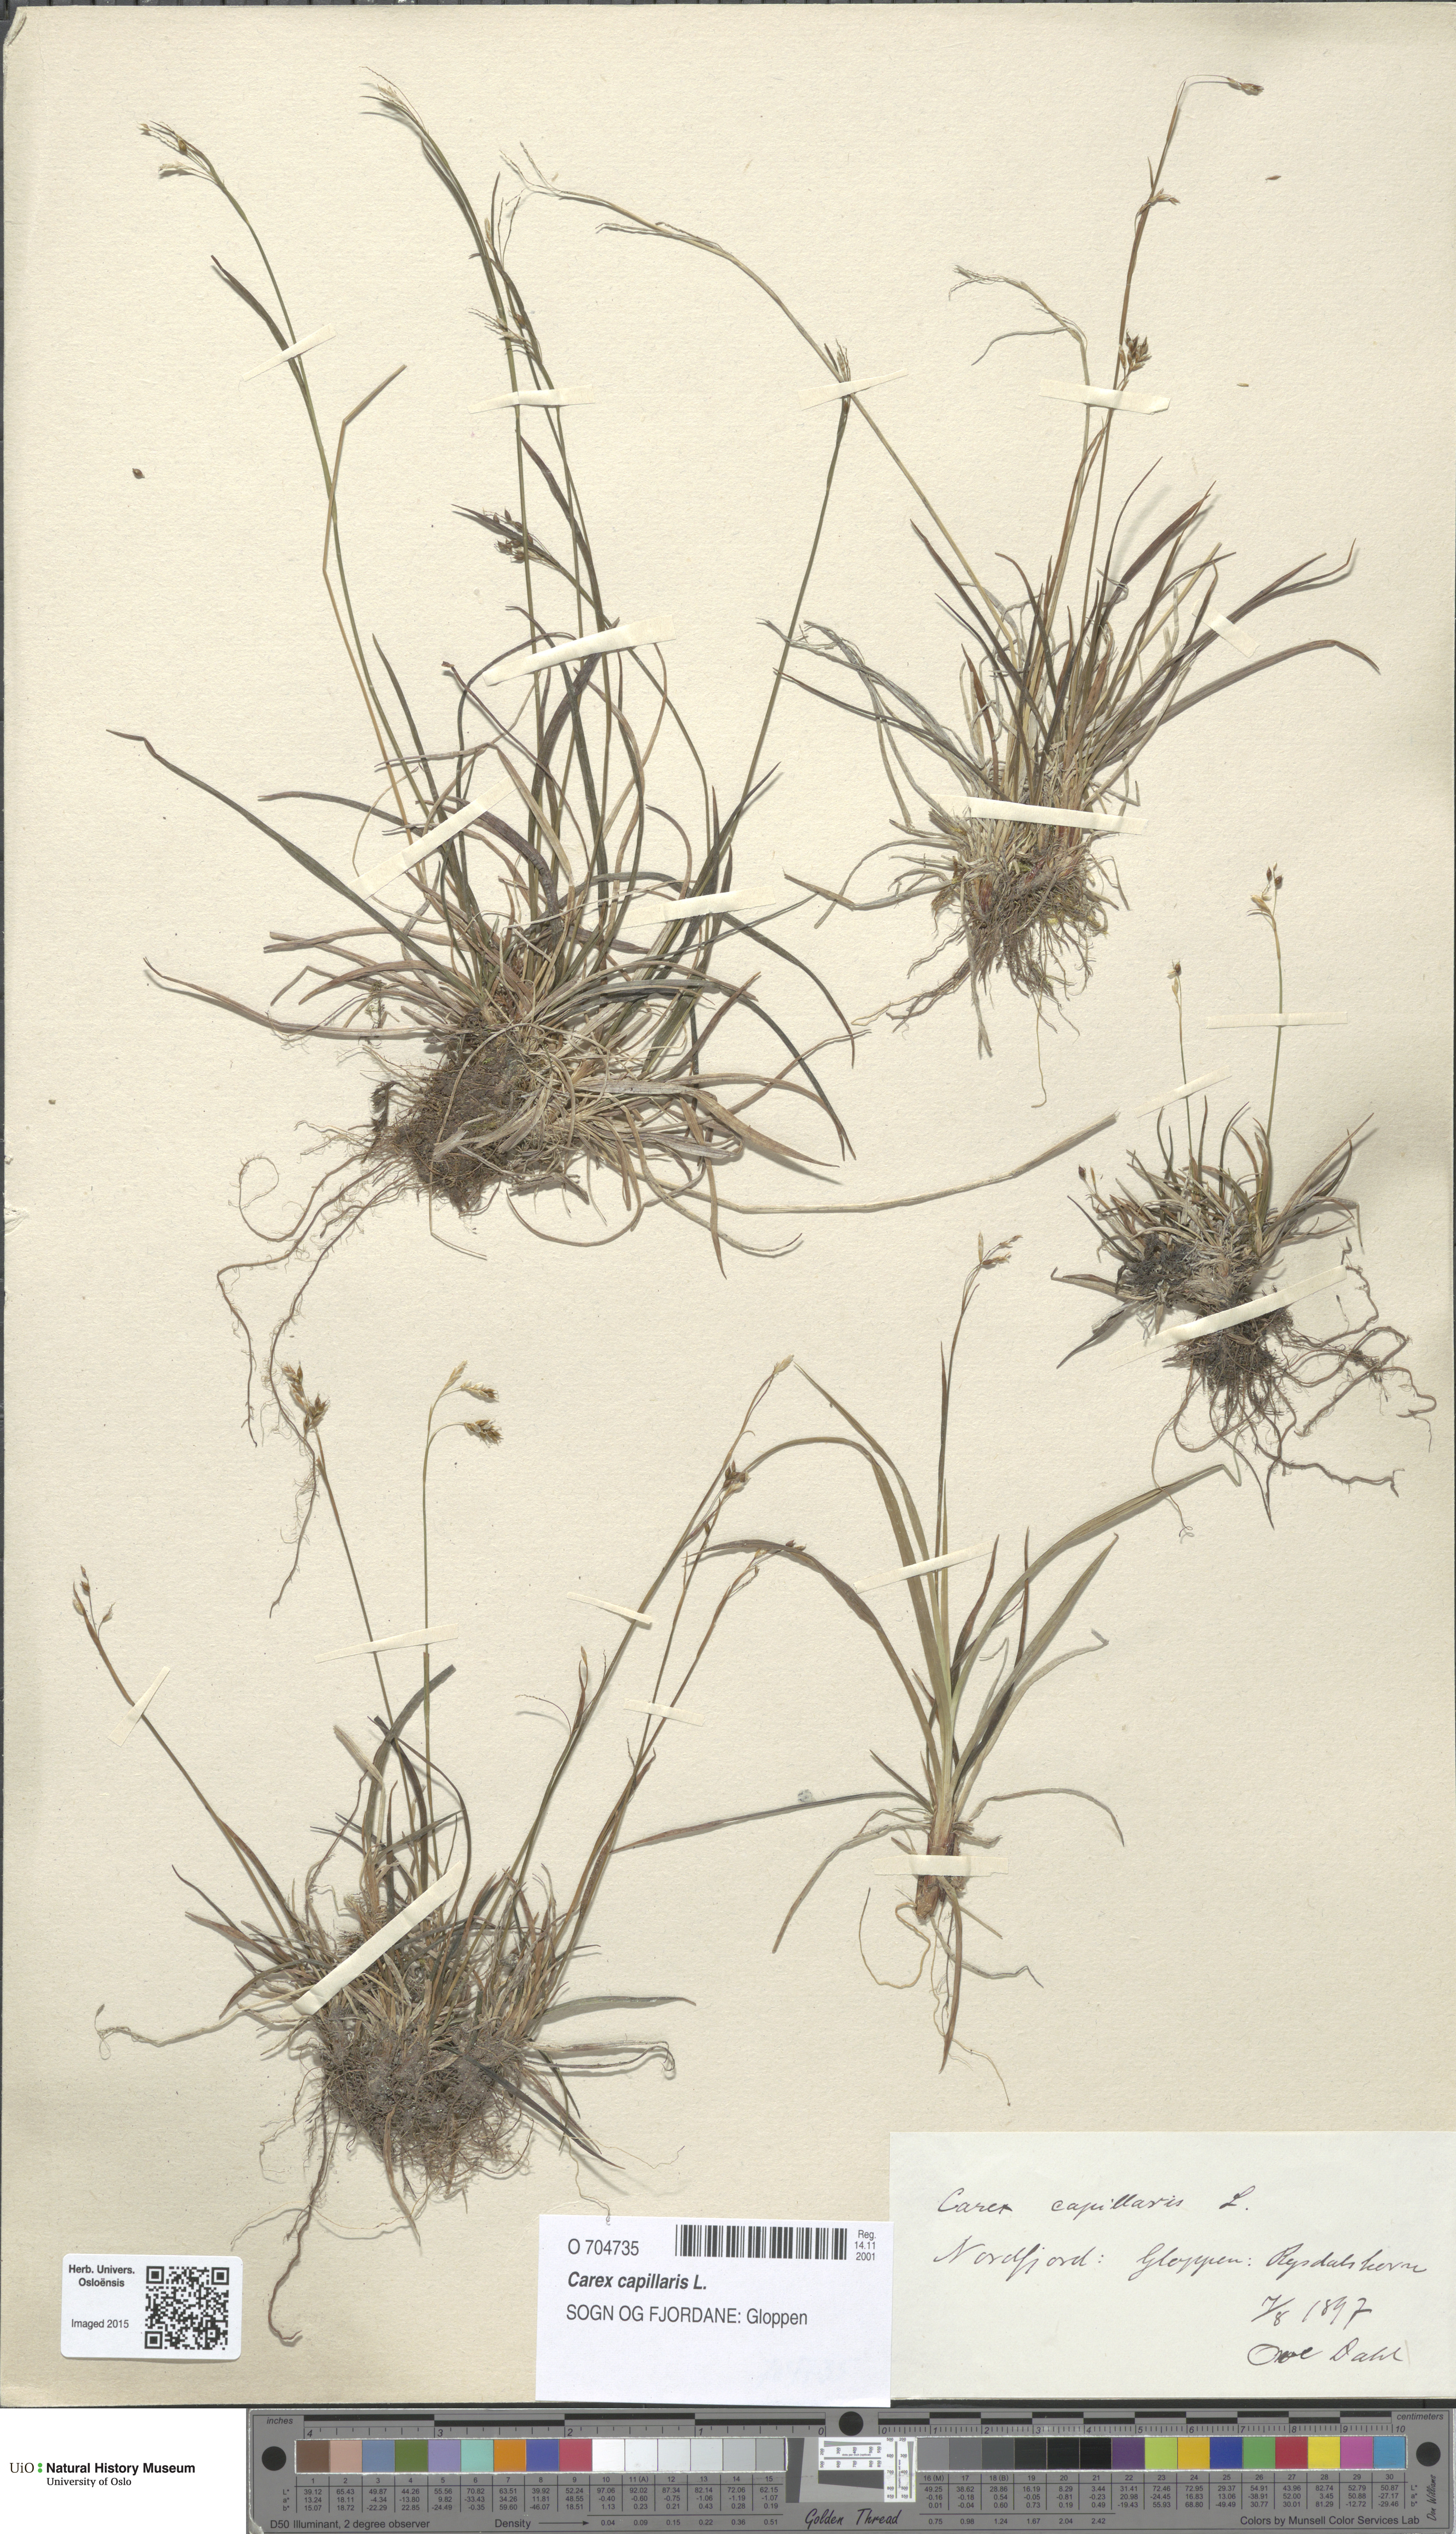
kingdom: Plantae
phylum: Tracheophyta
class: Liliopsida
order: Poales
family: Cyperaceae
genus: Carex
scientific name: Carex capillaris
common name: Hair sedge
